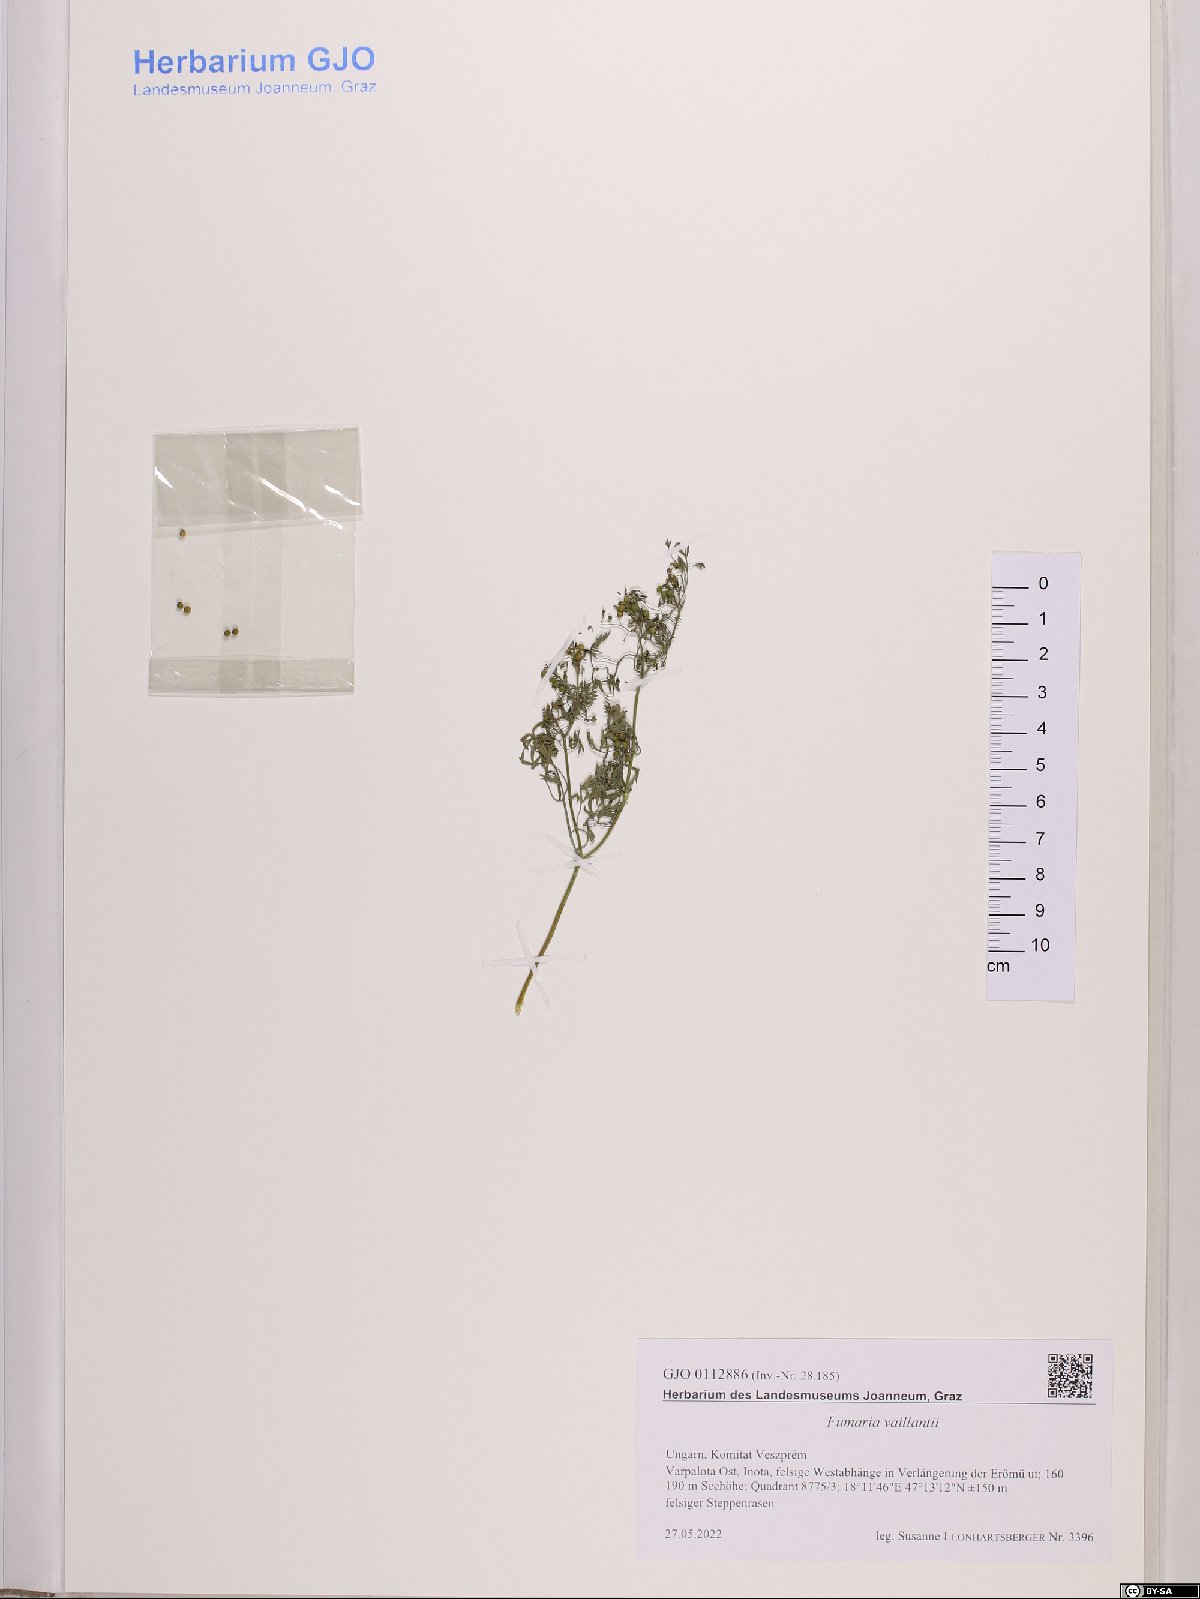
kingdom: Plantae
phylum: Tracheophyta
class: Magnoliopsida
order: Ranunculales
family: Papaveraceae
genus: Fumaria
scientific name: Fumaria vaillantii
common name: Few-flowered fumitory
